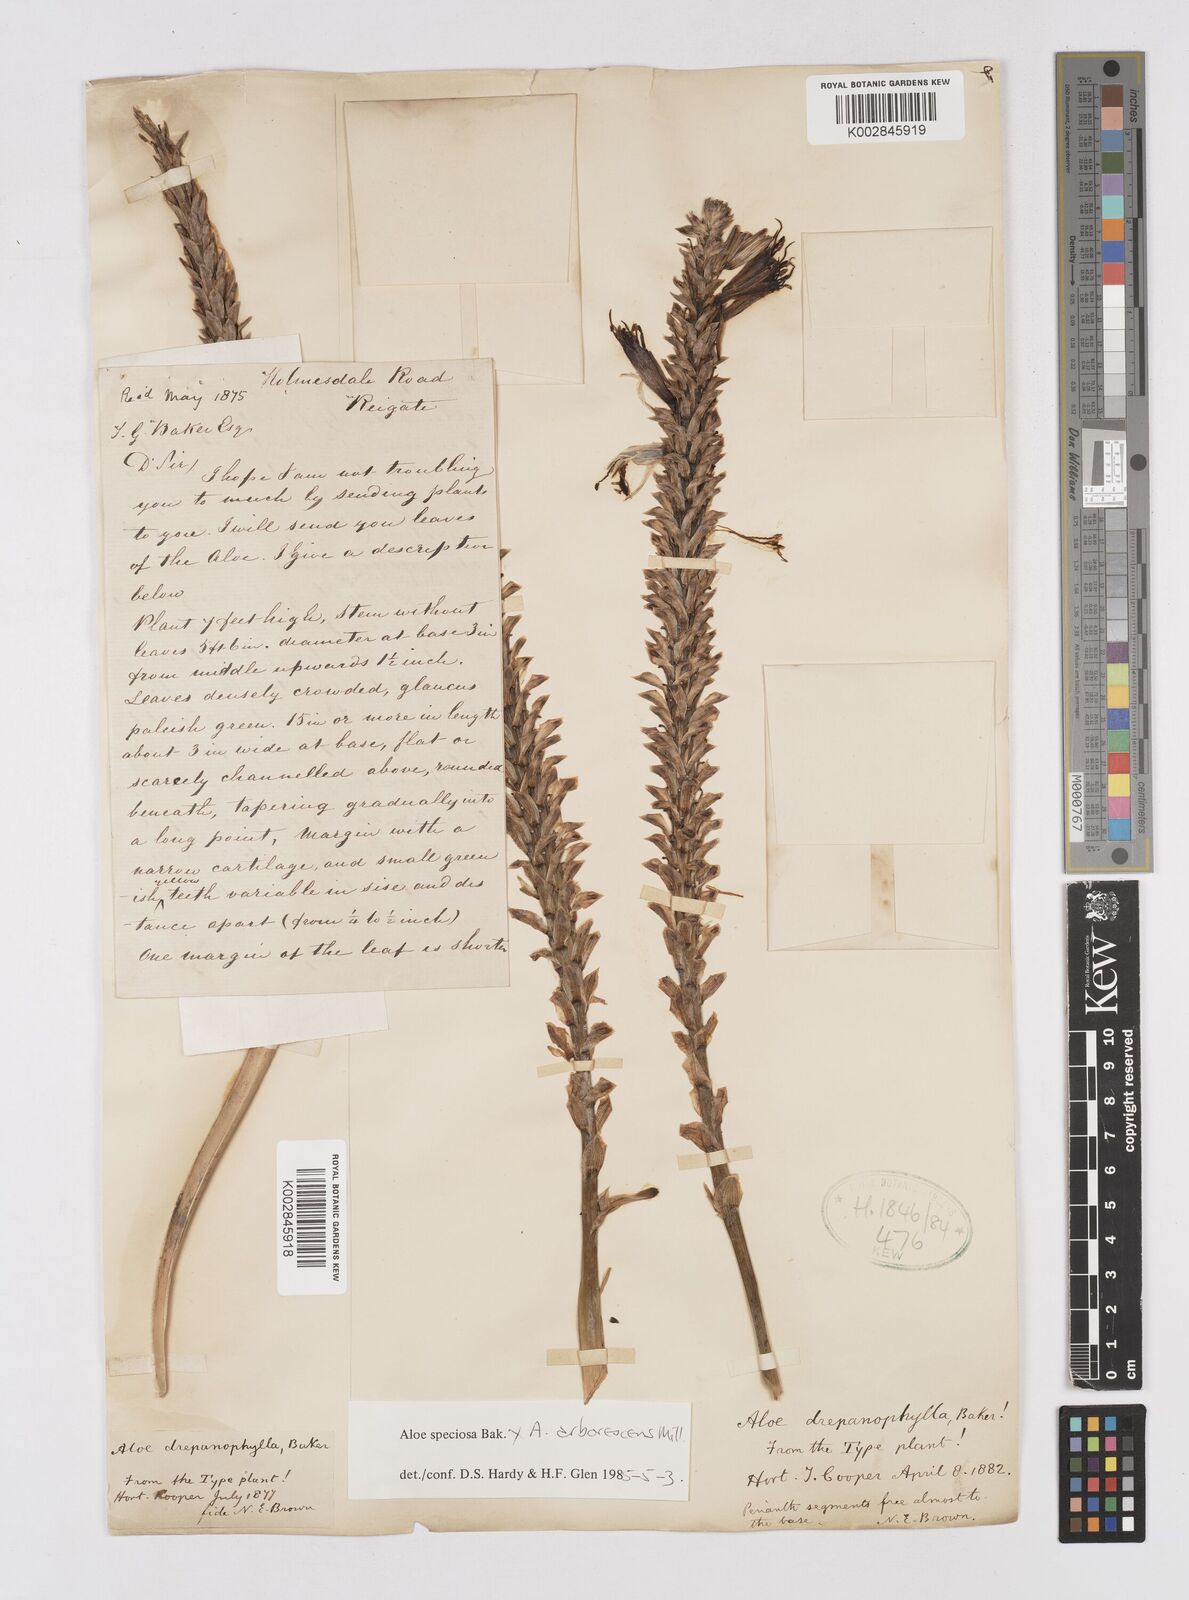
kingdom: Plantae
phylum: Tracheophyta
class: Liliopsida
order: Asparagales
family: Asphodelaceae
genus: Aloe
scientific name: Aloe speciosa
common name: Beautiful aloe
